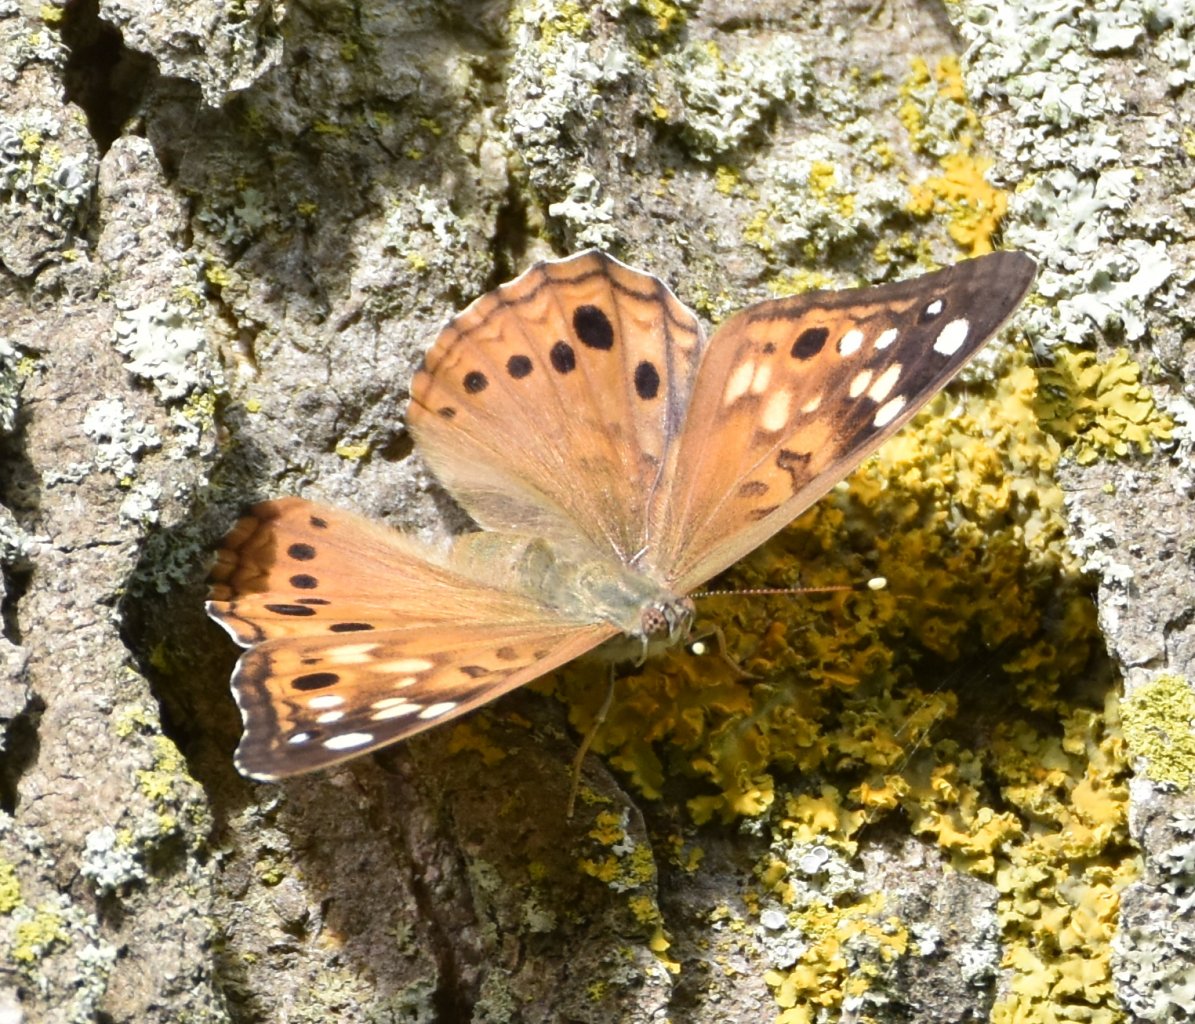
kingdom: Animalia
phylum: Arthropoda
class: Insecta
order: Lepidoptera
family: Nymphalidae
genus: Asterocampa
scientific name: Asterocampa celtis
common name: Hackberry Emperor
